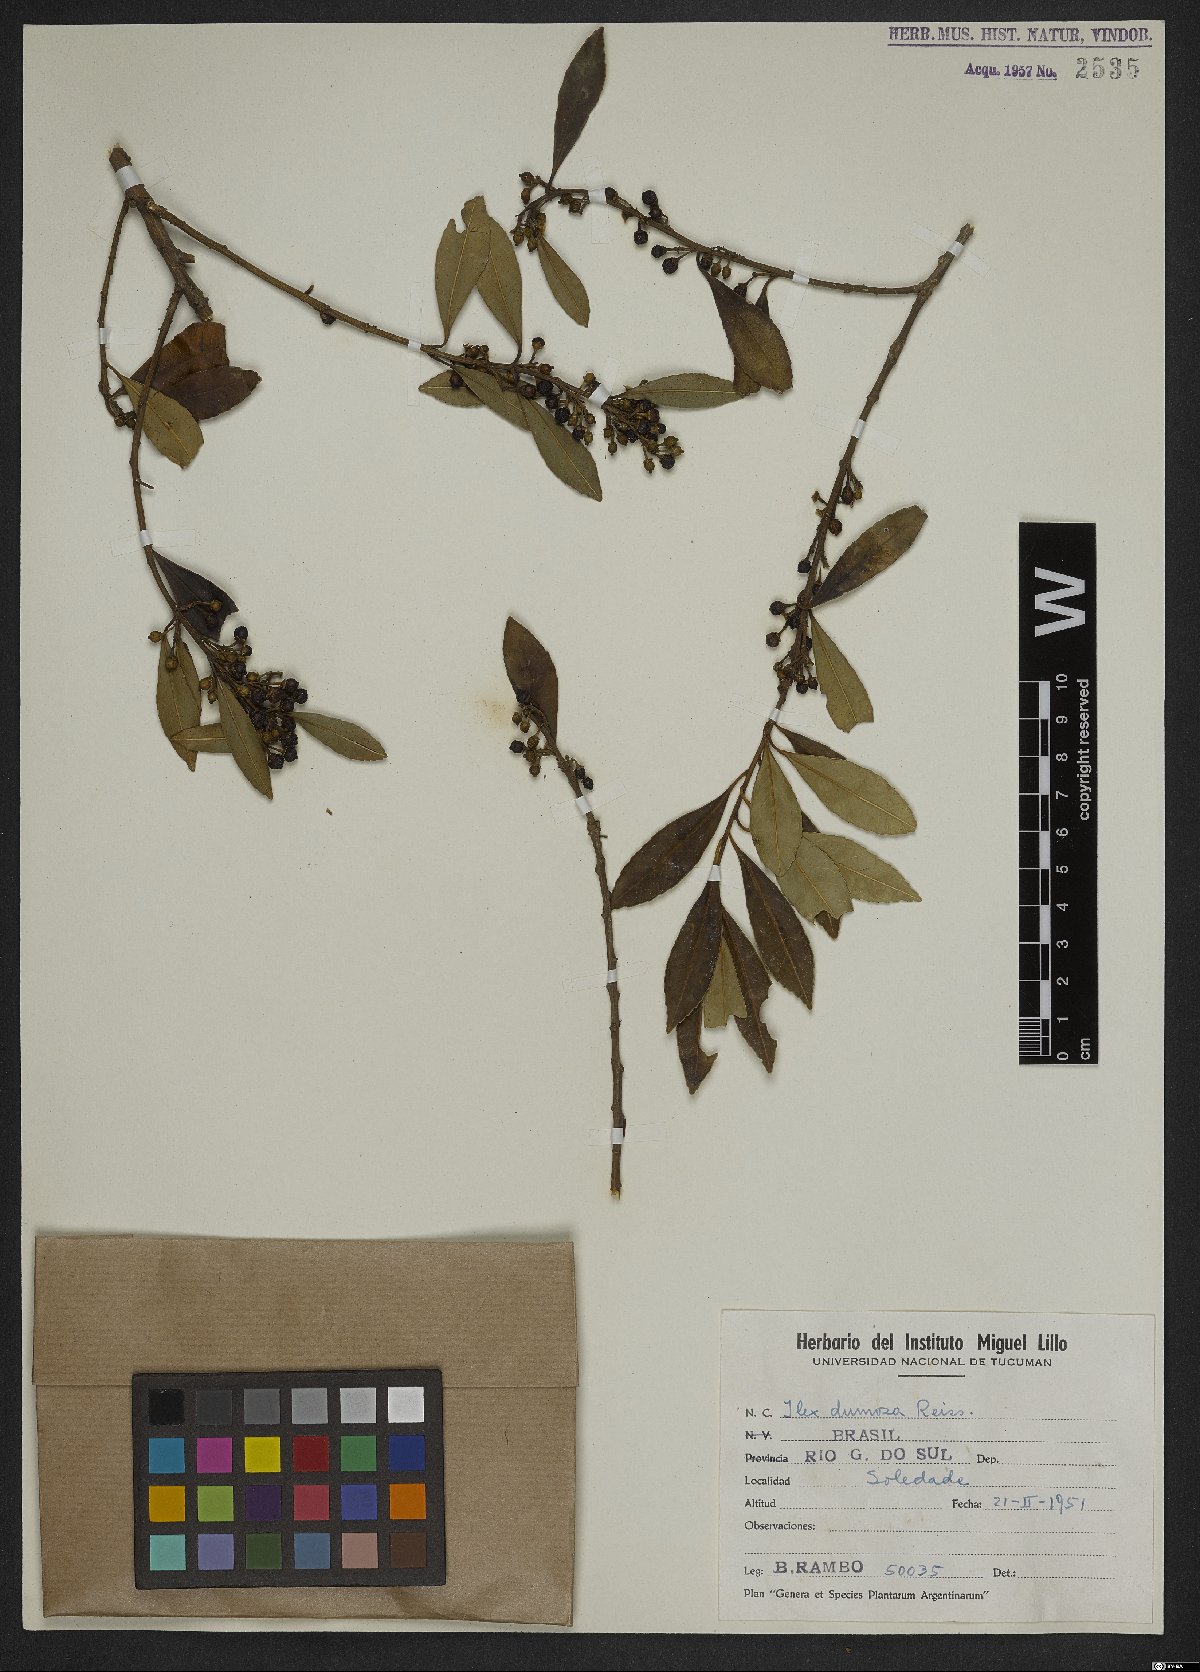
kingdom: Plantae
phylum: Tracheophyta
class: Magnoliopsida
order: Aquifoliales
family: Aquifoliaceae
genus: Ilex
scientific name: Ilex dumosa
